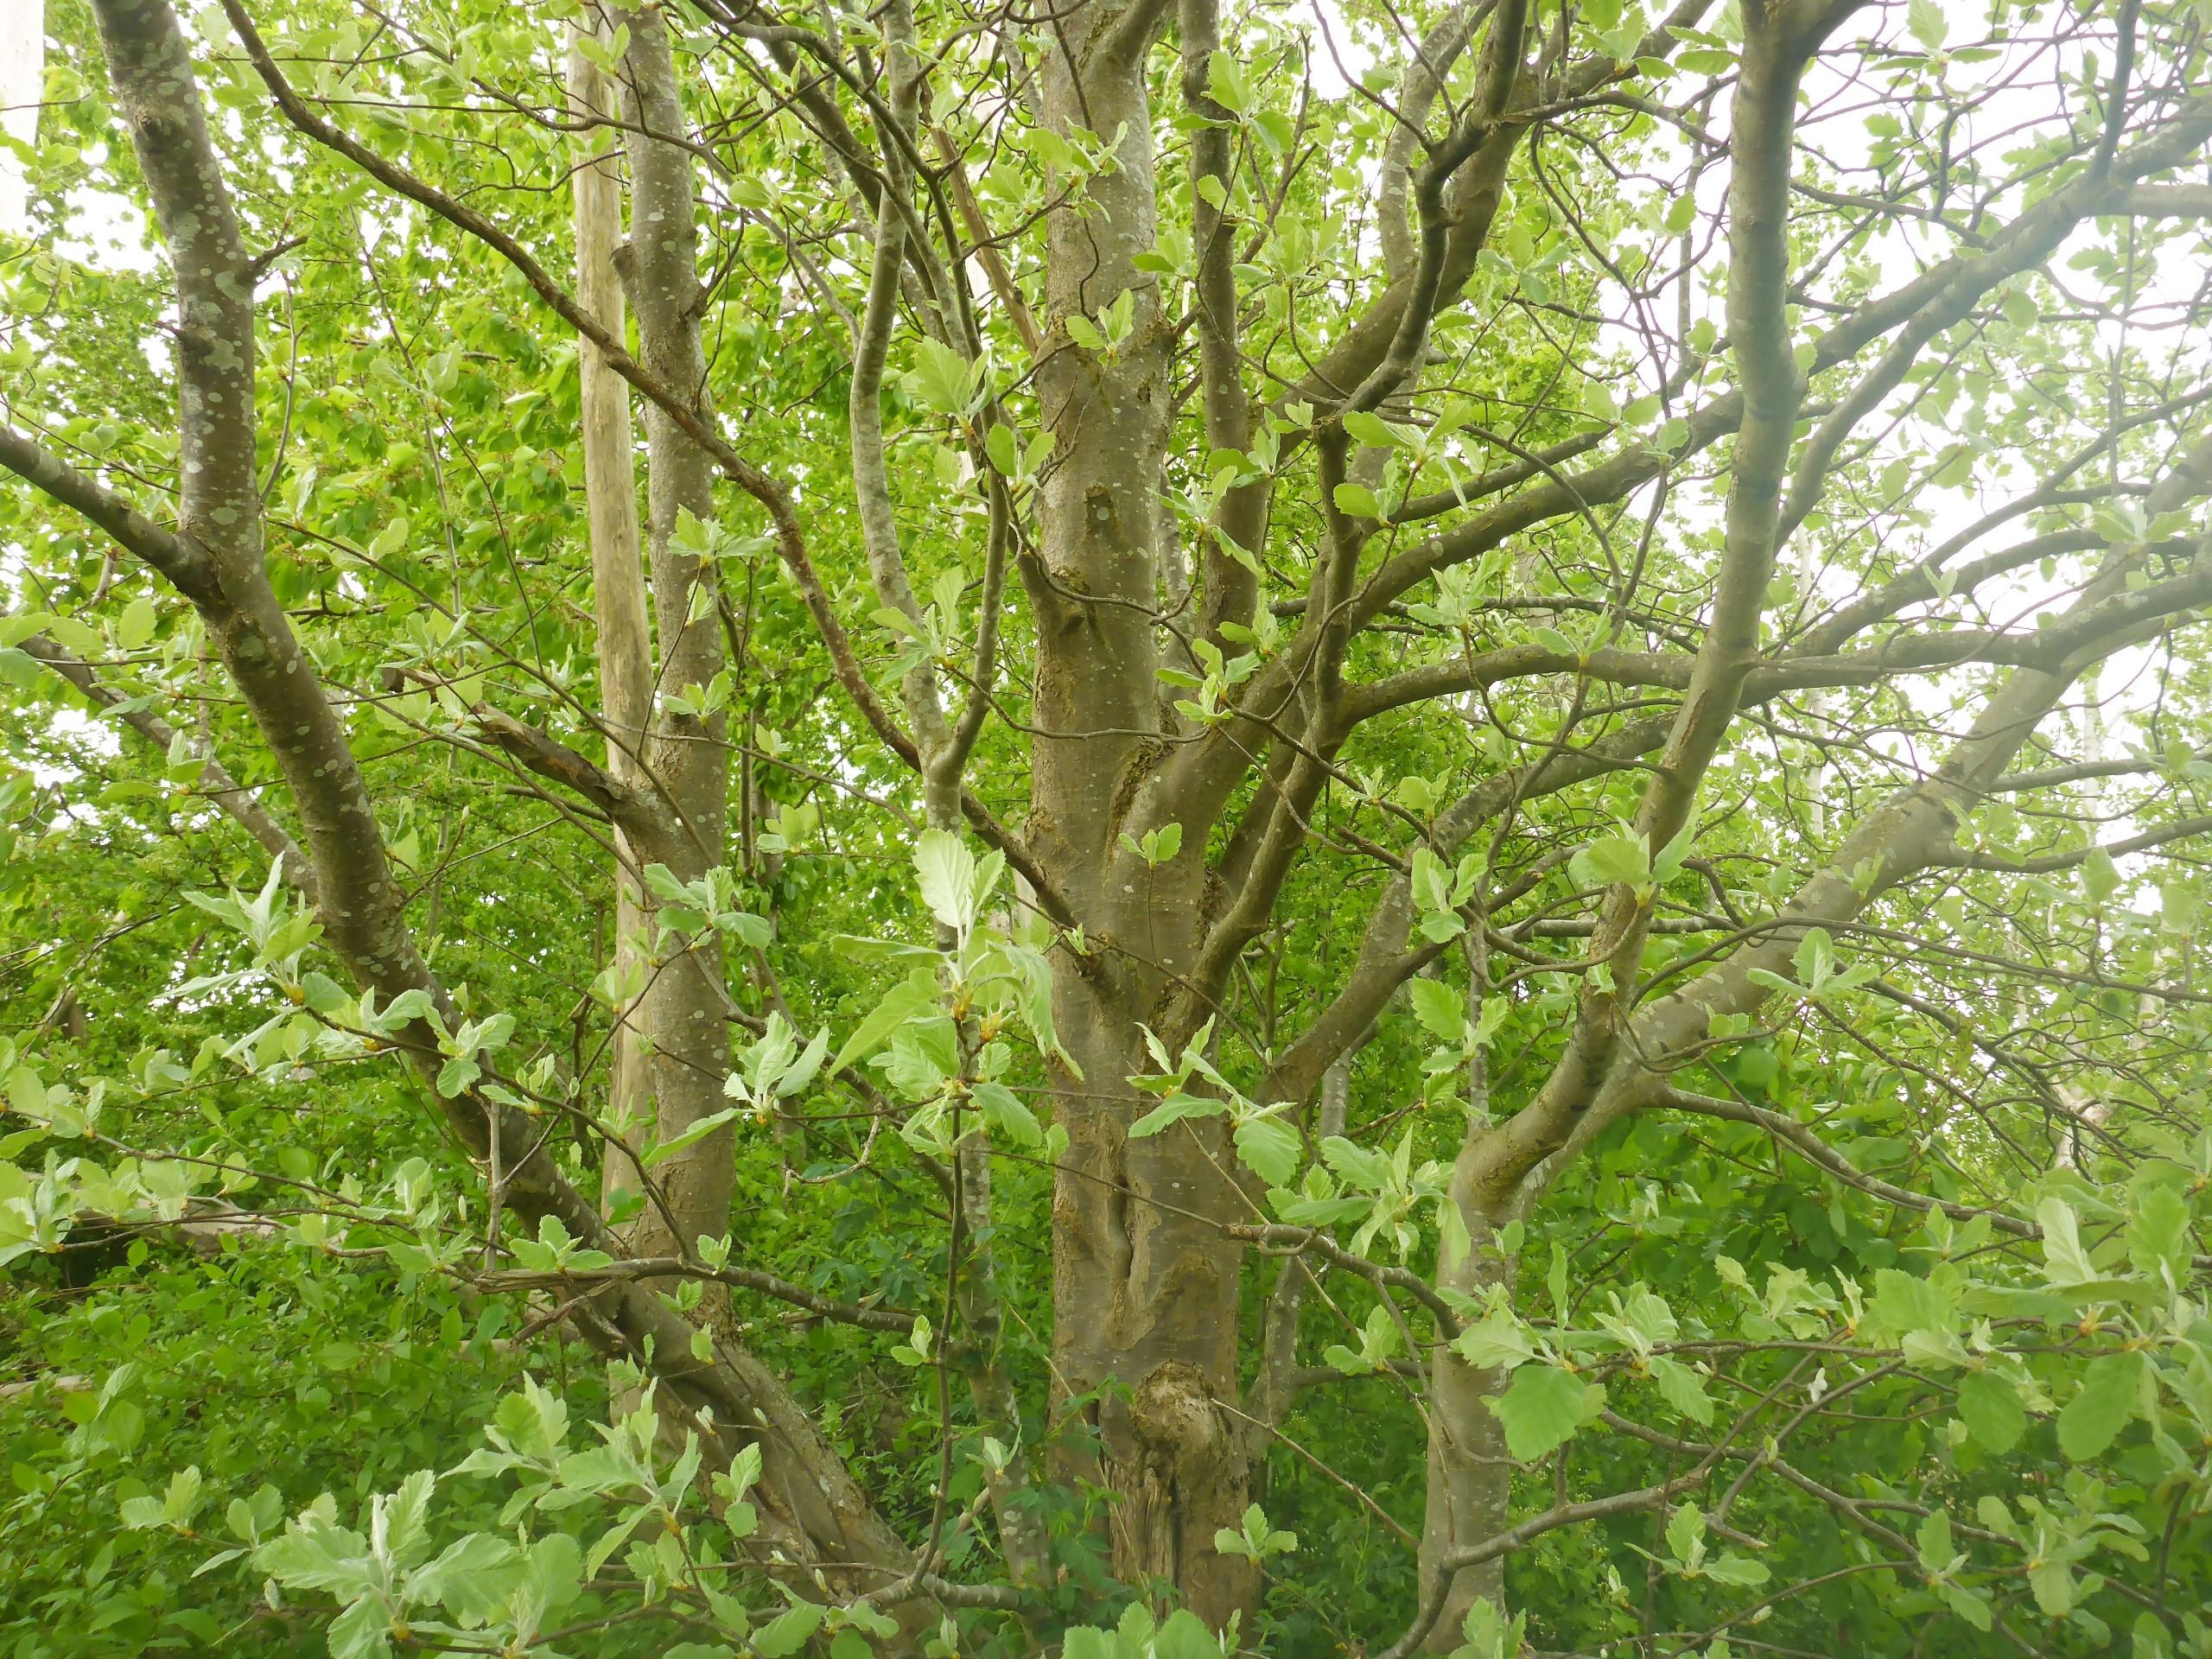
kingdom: Plantae
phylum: Tracheophyta
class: Magnoliopsida
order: Rosales
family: Rosaceae
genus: Scandosorbus
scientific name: Scandosorbus intermedia
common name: Selje-røn
